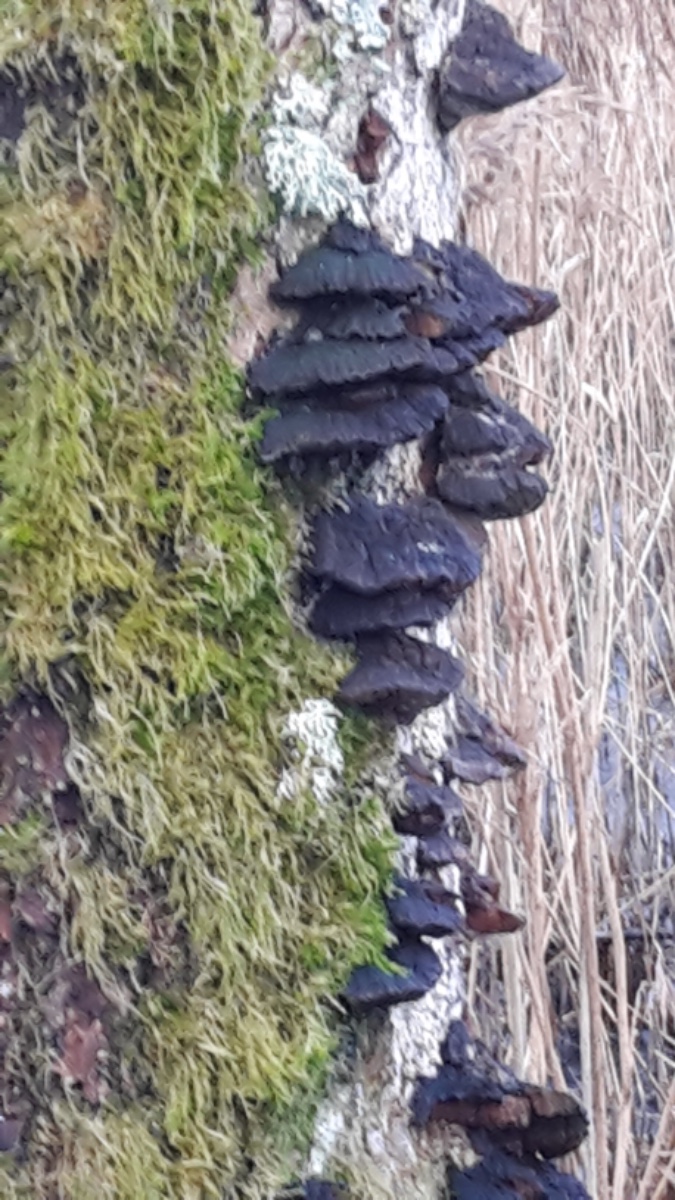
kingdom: Fungi
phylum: Basidiomycota
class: Agaricomycetes
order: Hymenochaetales
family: Hymenochaetaceae
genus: Xanthoporia
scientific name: Xanthoporia radiata
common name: elle-spejlporesvamp
